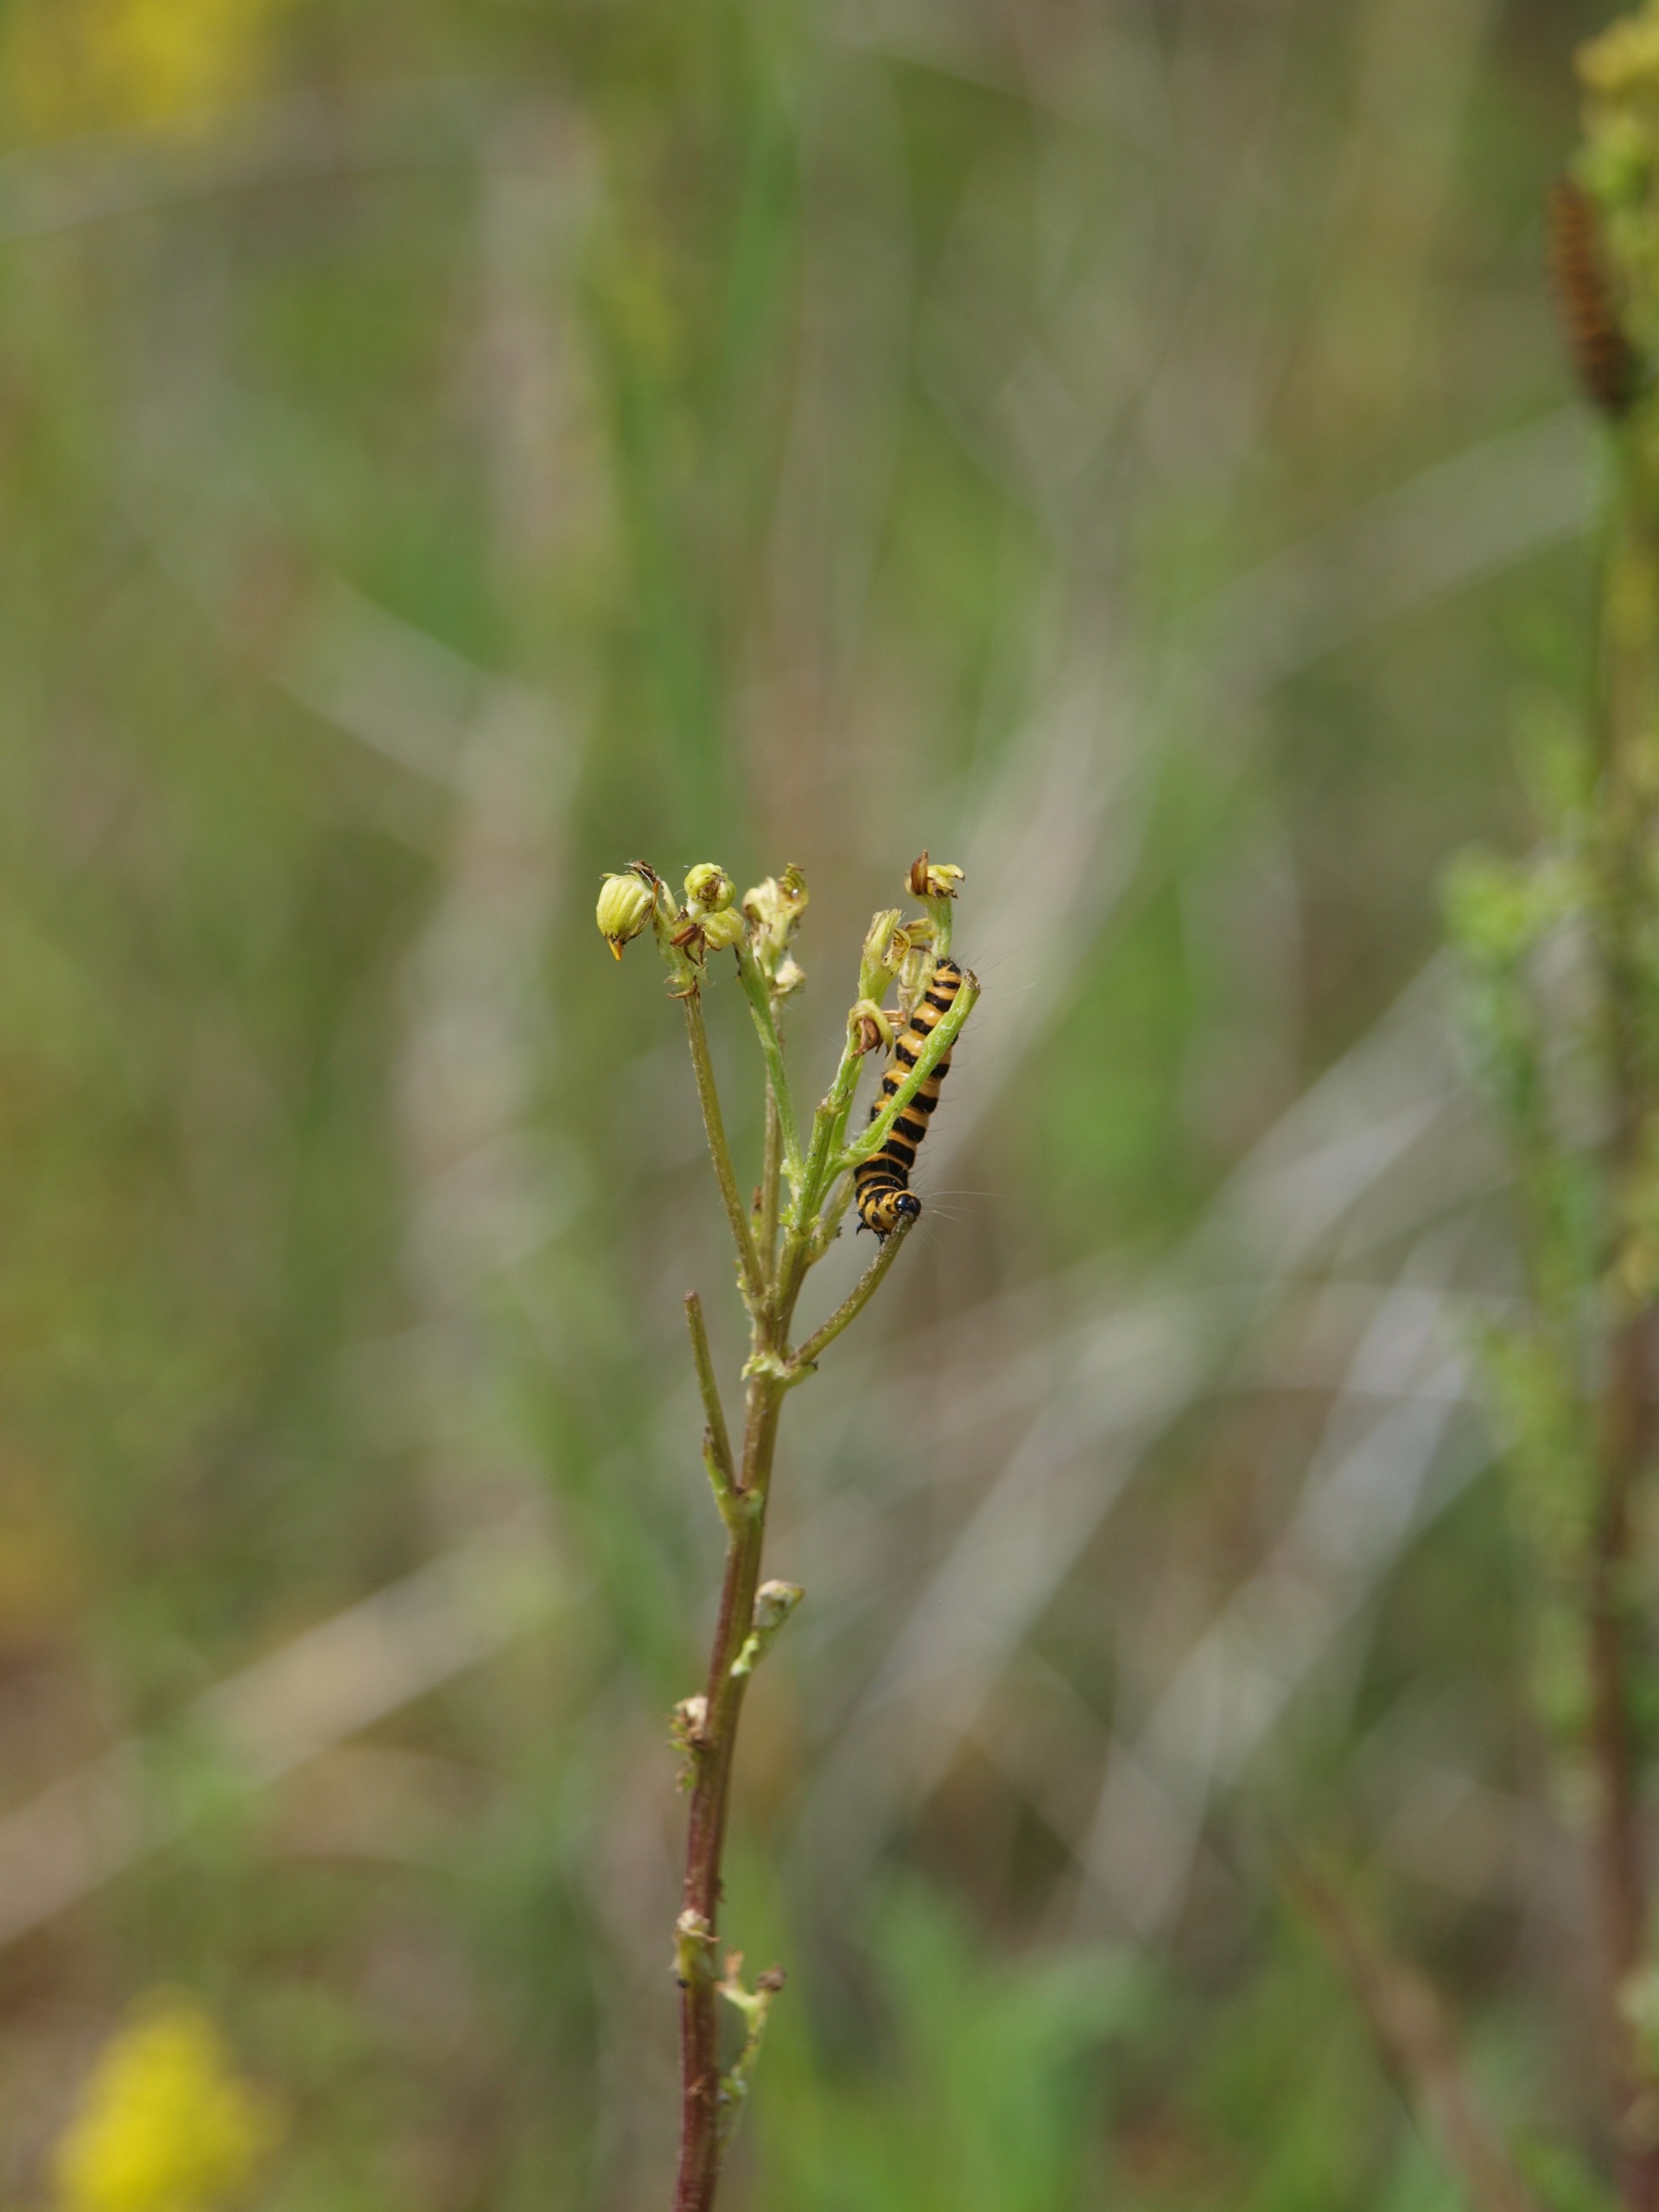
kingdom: Animalia
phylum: Arthropoda
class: Insecta
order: Lepidoptera
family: Erebidae
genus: Tyria
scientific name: Tyria jacobaeae
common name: Blodplet
